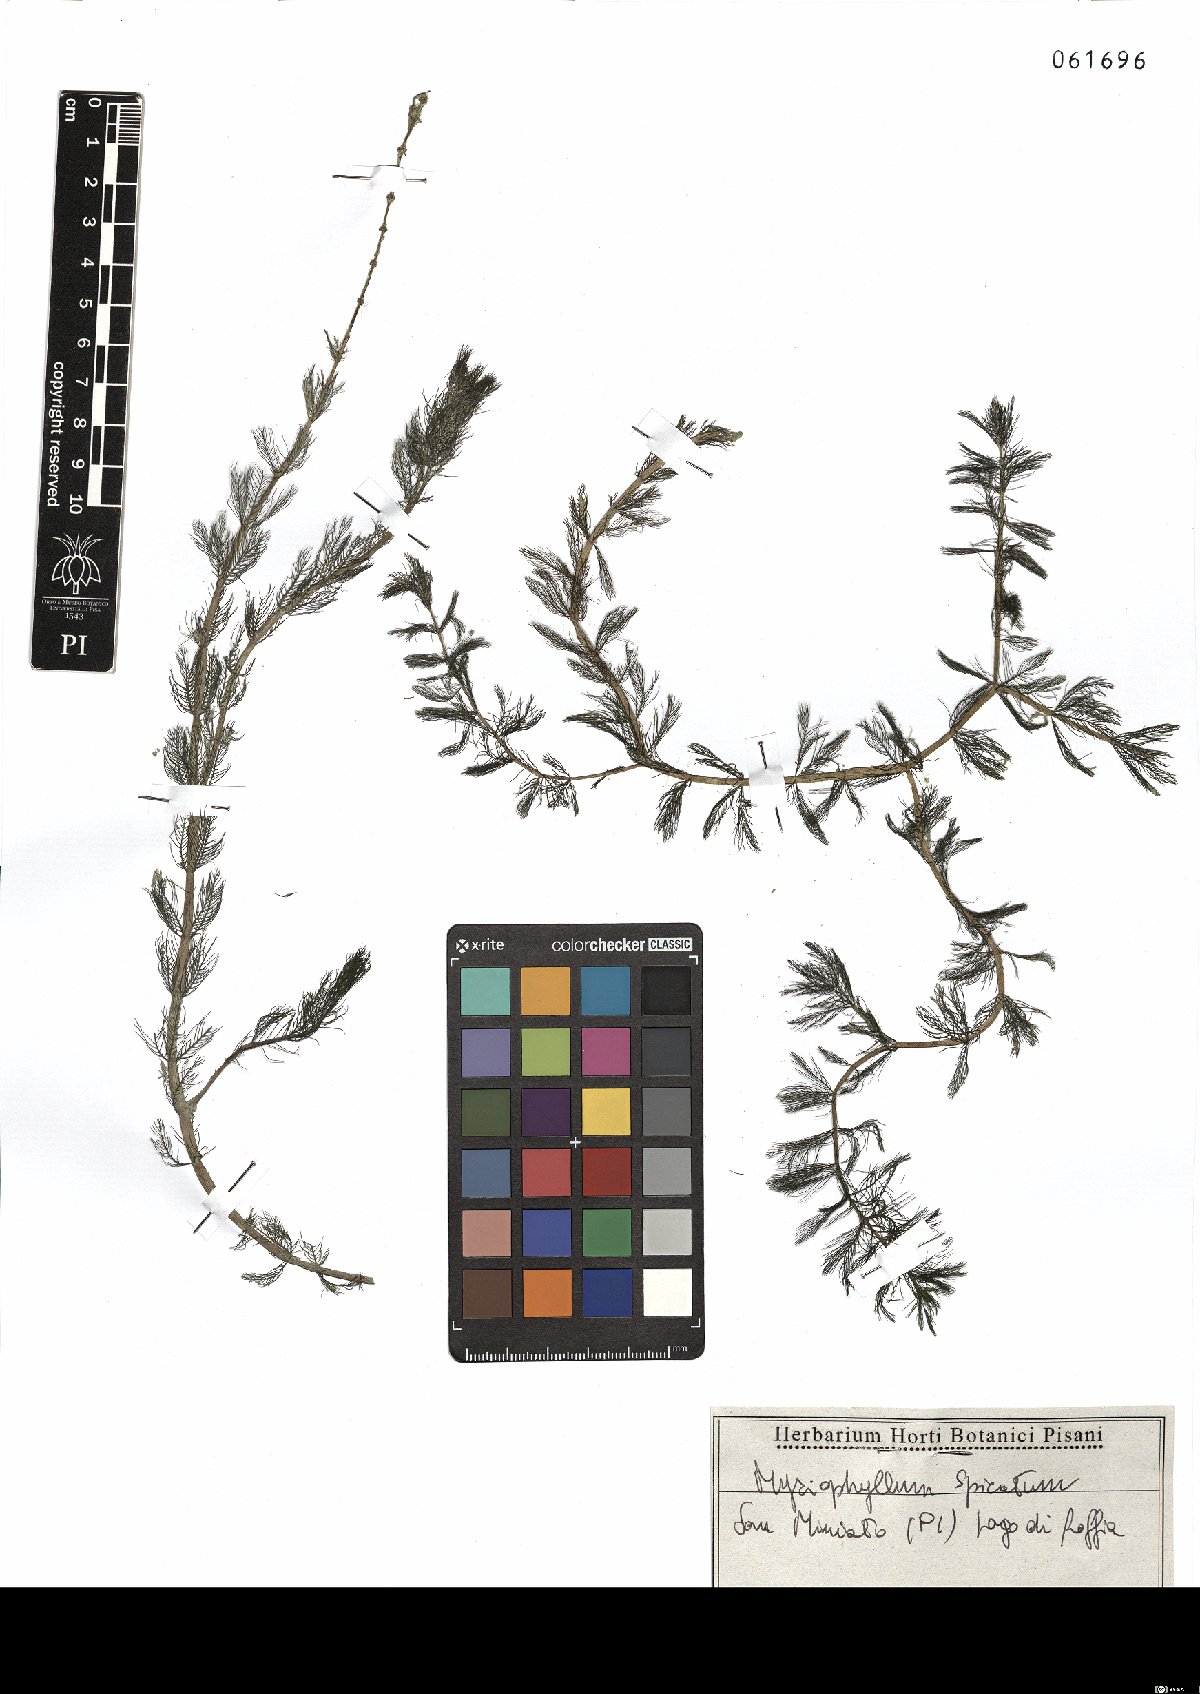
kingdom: Plantae
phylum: Tracheophyta
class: Magnoliopsida
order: Saxifragales
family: Haloragaceae
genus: Myriophyllum
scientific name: Myriophyllum spicatum
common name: Spiked water-milfoil
